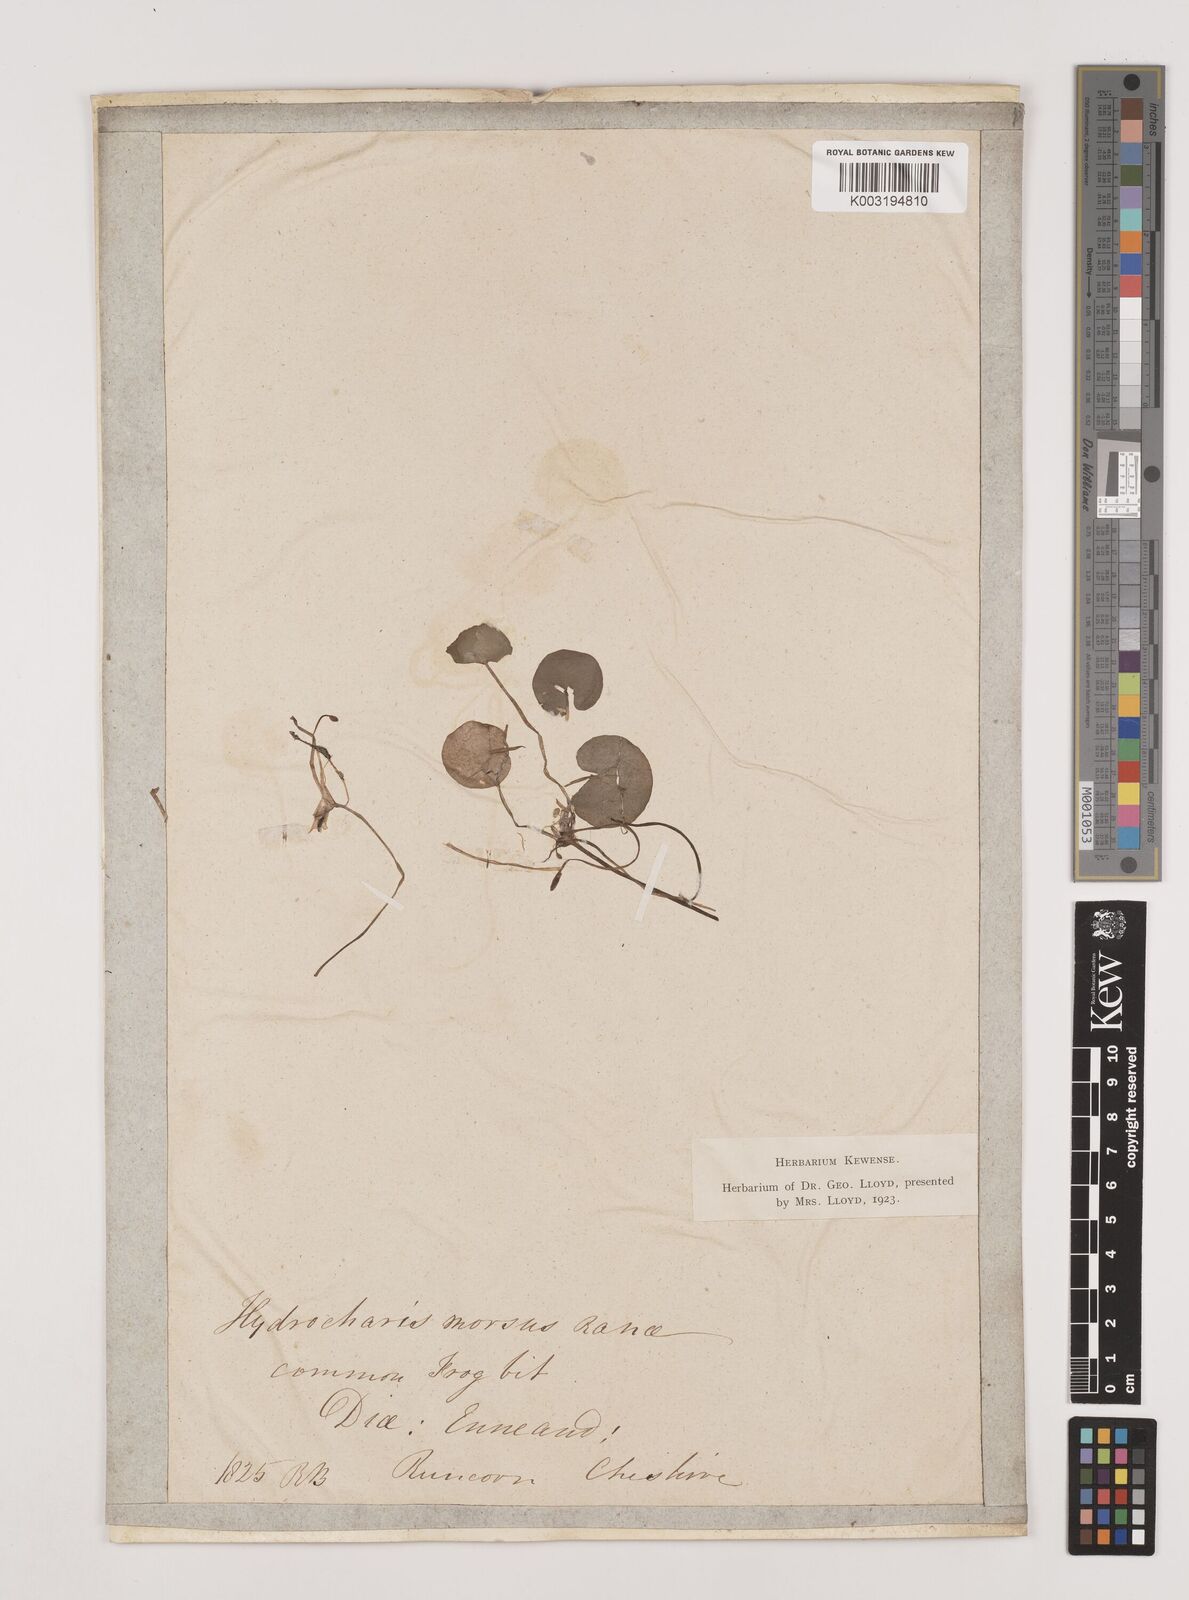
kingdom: Plantae
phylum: Tracheophyta
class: Liliopsida
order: Alismatales
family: Hydrocharitaceae
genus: Hydrocharis
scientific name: Hydrocharis morsus-ranae
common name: Frogbit
